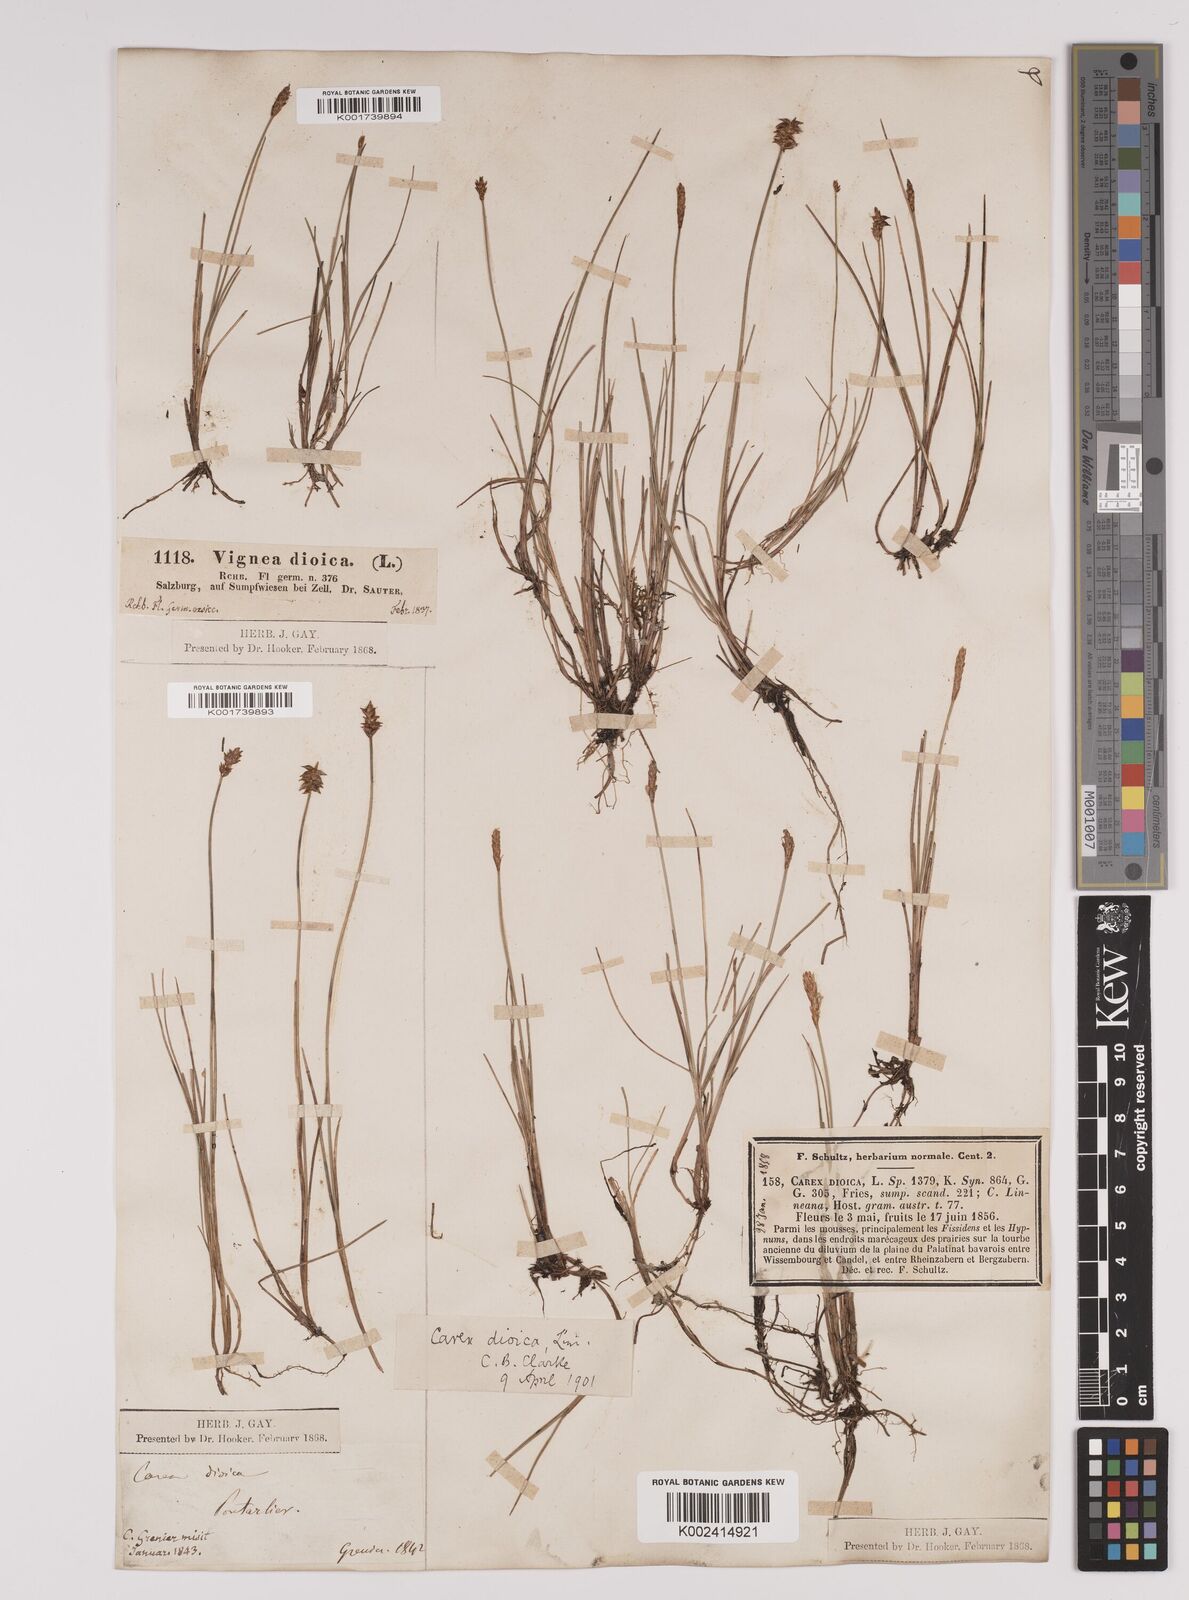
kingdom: Plantae
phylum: Tracheophyta
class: Liliopsida
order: Poales
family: Cyperaceae
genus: Carex
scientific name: Carex dioica
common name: Dioecious sedge
